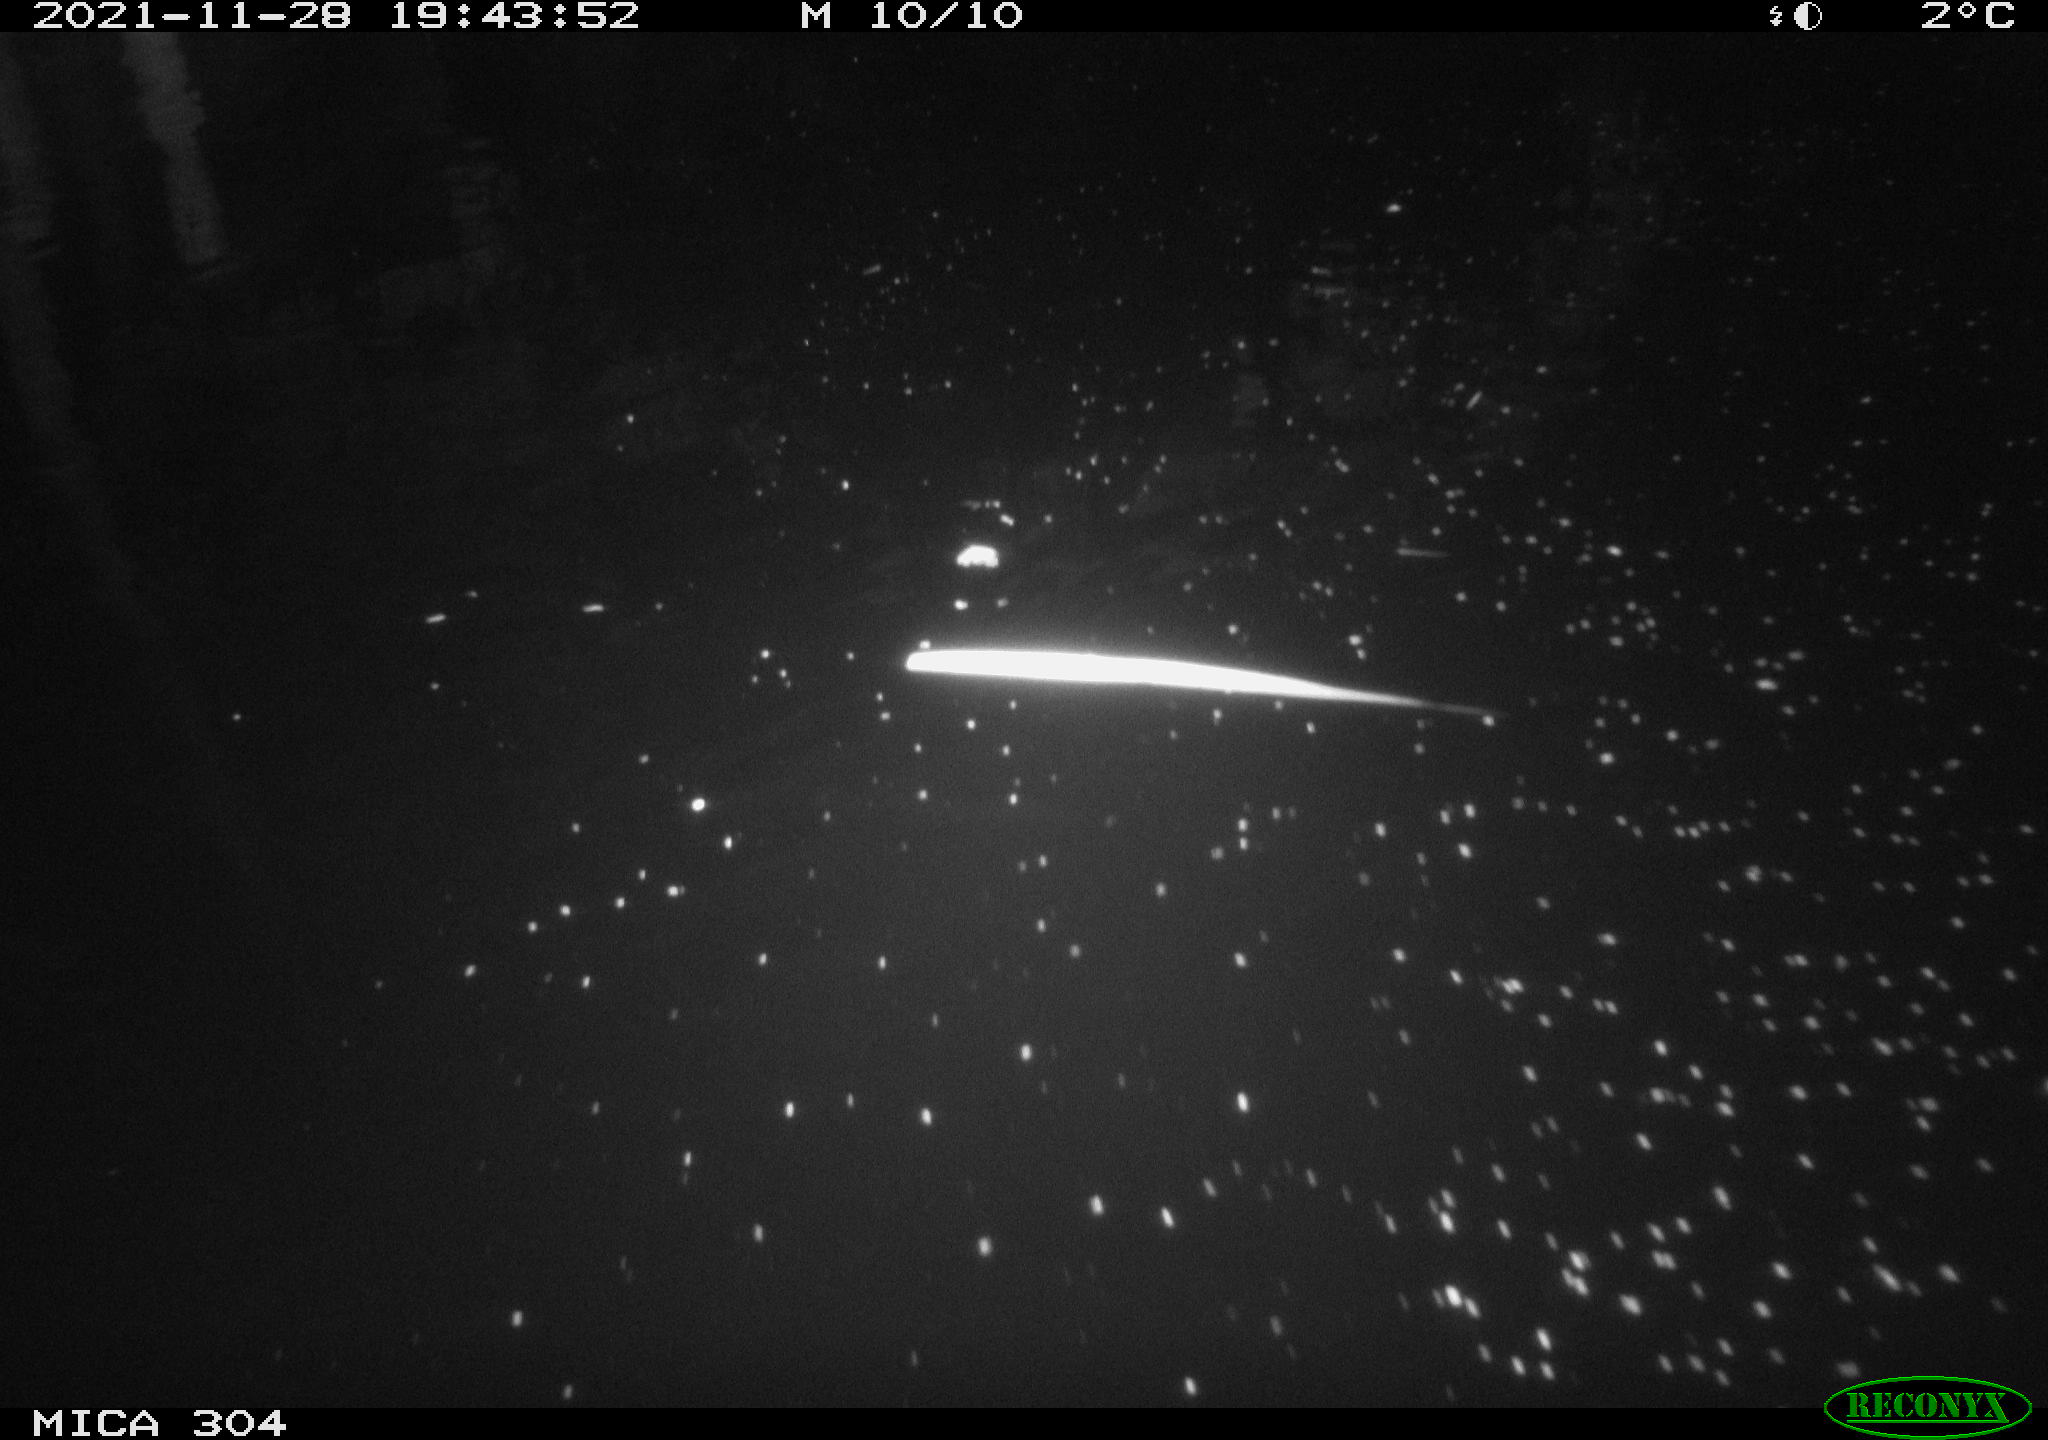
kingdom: Animalia
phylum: Chordata
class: Mammalia
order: Rodentia
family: Muridae
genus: Rattus
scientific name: Rattus norvegicus
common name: Brown rat
